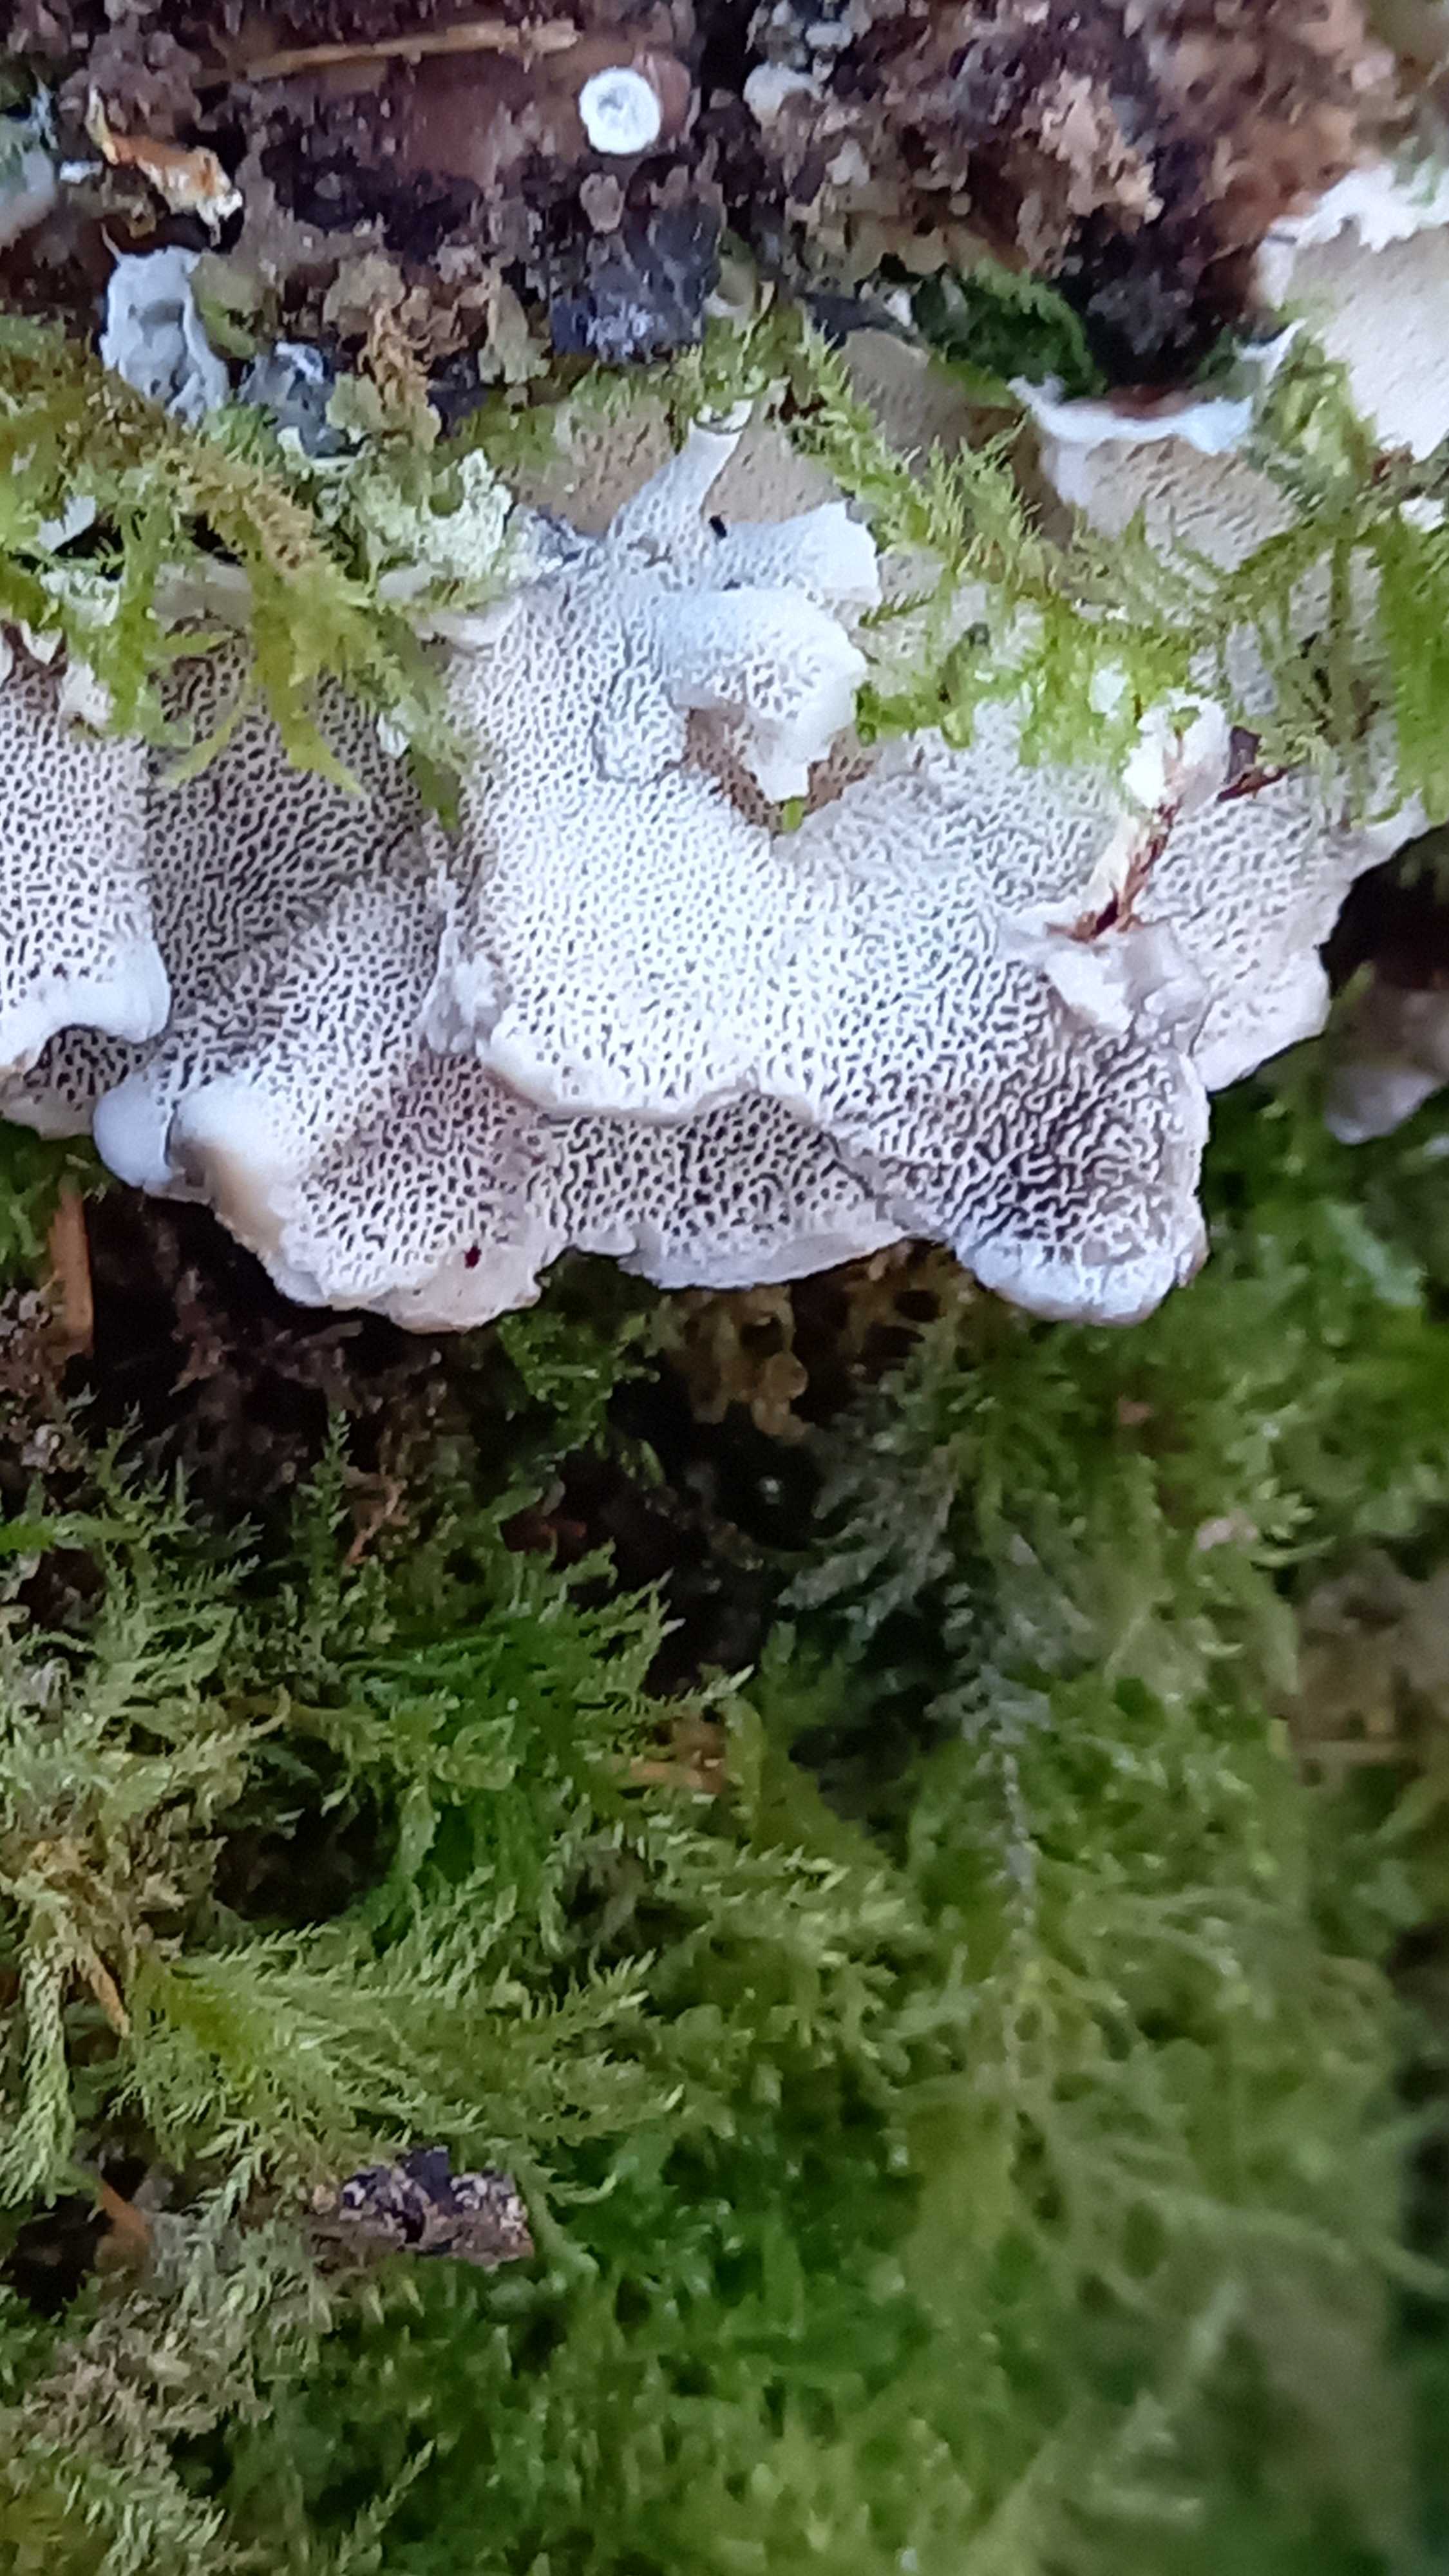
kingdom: Fungi
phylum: Basidiomycota
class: Agaricomycetes
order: Polyporales
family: Polyporaceae
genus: Trametes
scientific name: Trametes versicolor
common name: broget læderporesvamp
